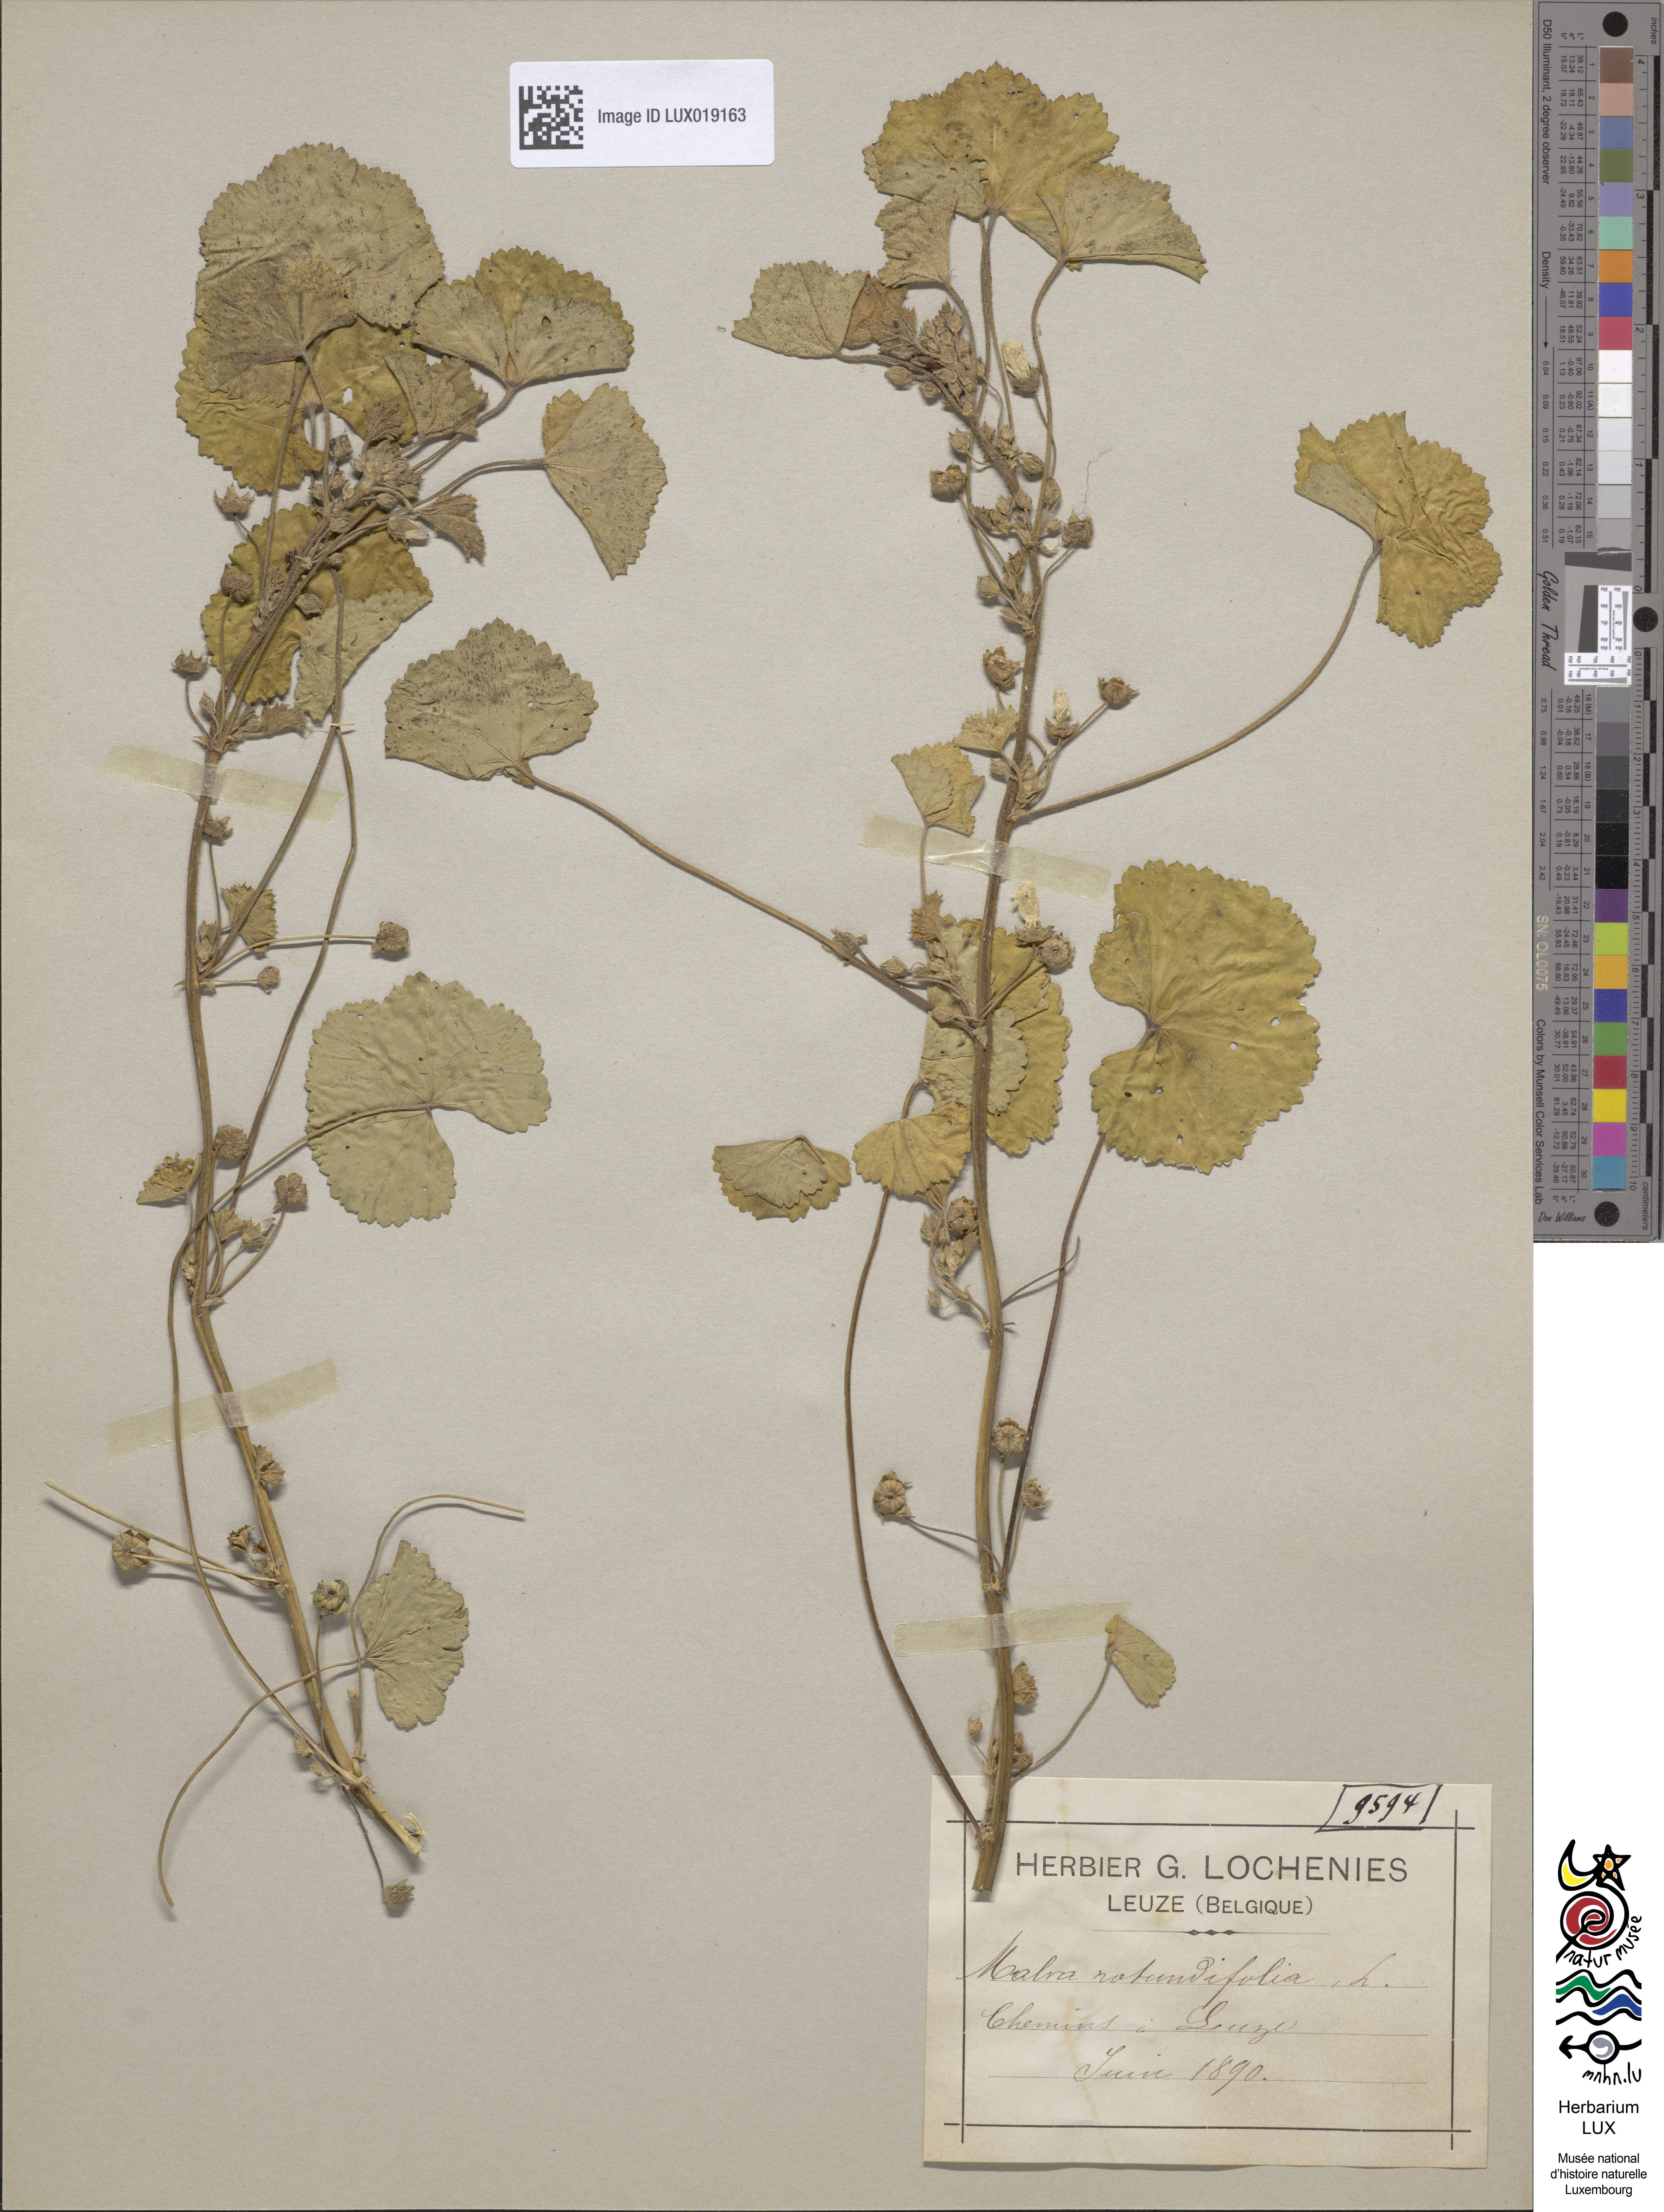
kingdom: Plantae
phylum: Tracheophyta
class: Magnoliopsida
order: Malvales
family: Malvaceae
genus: Malva
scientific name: Malva pusilla
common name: Small mallow
